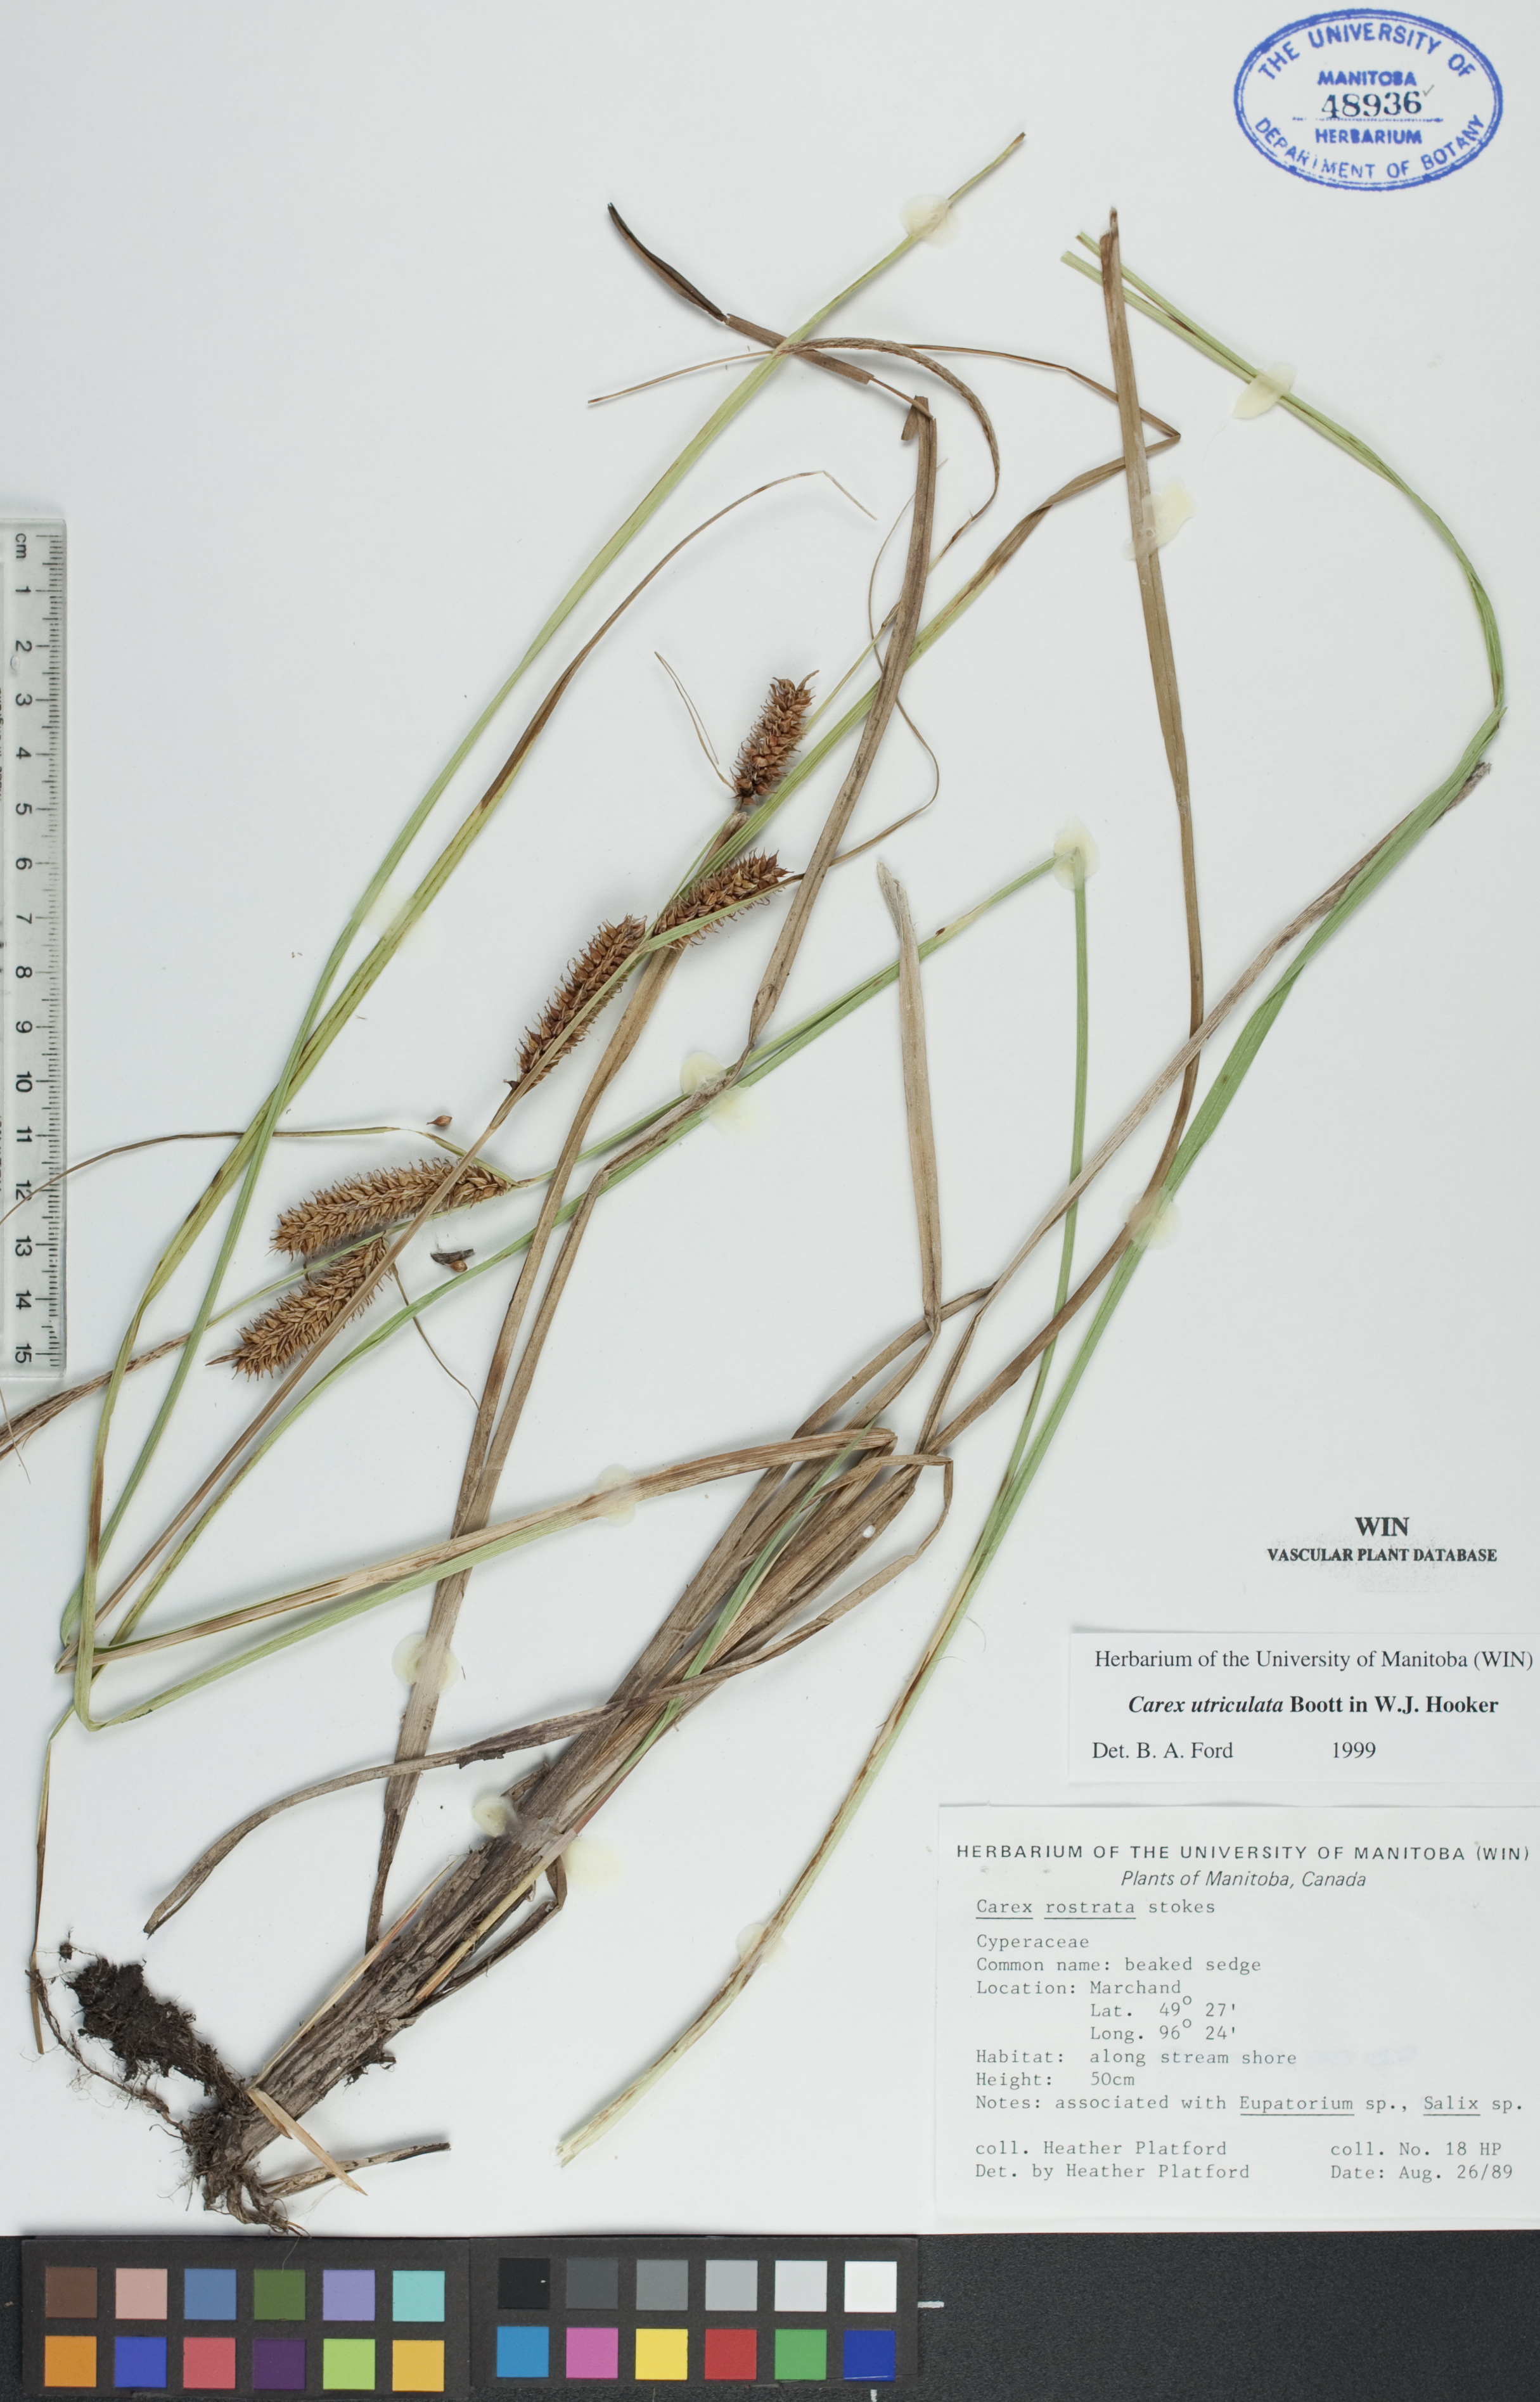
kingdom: Plantae
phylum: Tracheophyta
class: Liliopsida
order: Poales
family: Cyperaceae
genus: Carex
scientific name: Carex utriculata
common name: Beaked sedge
